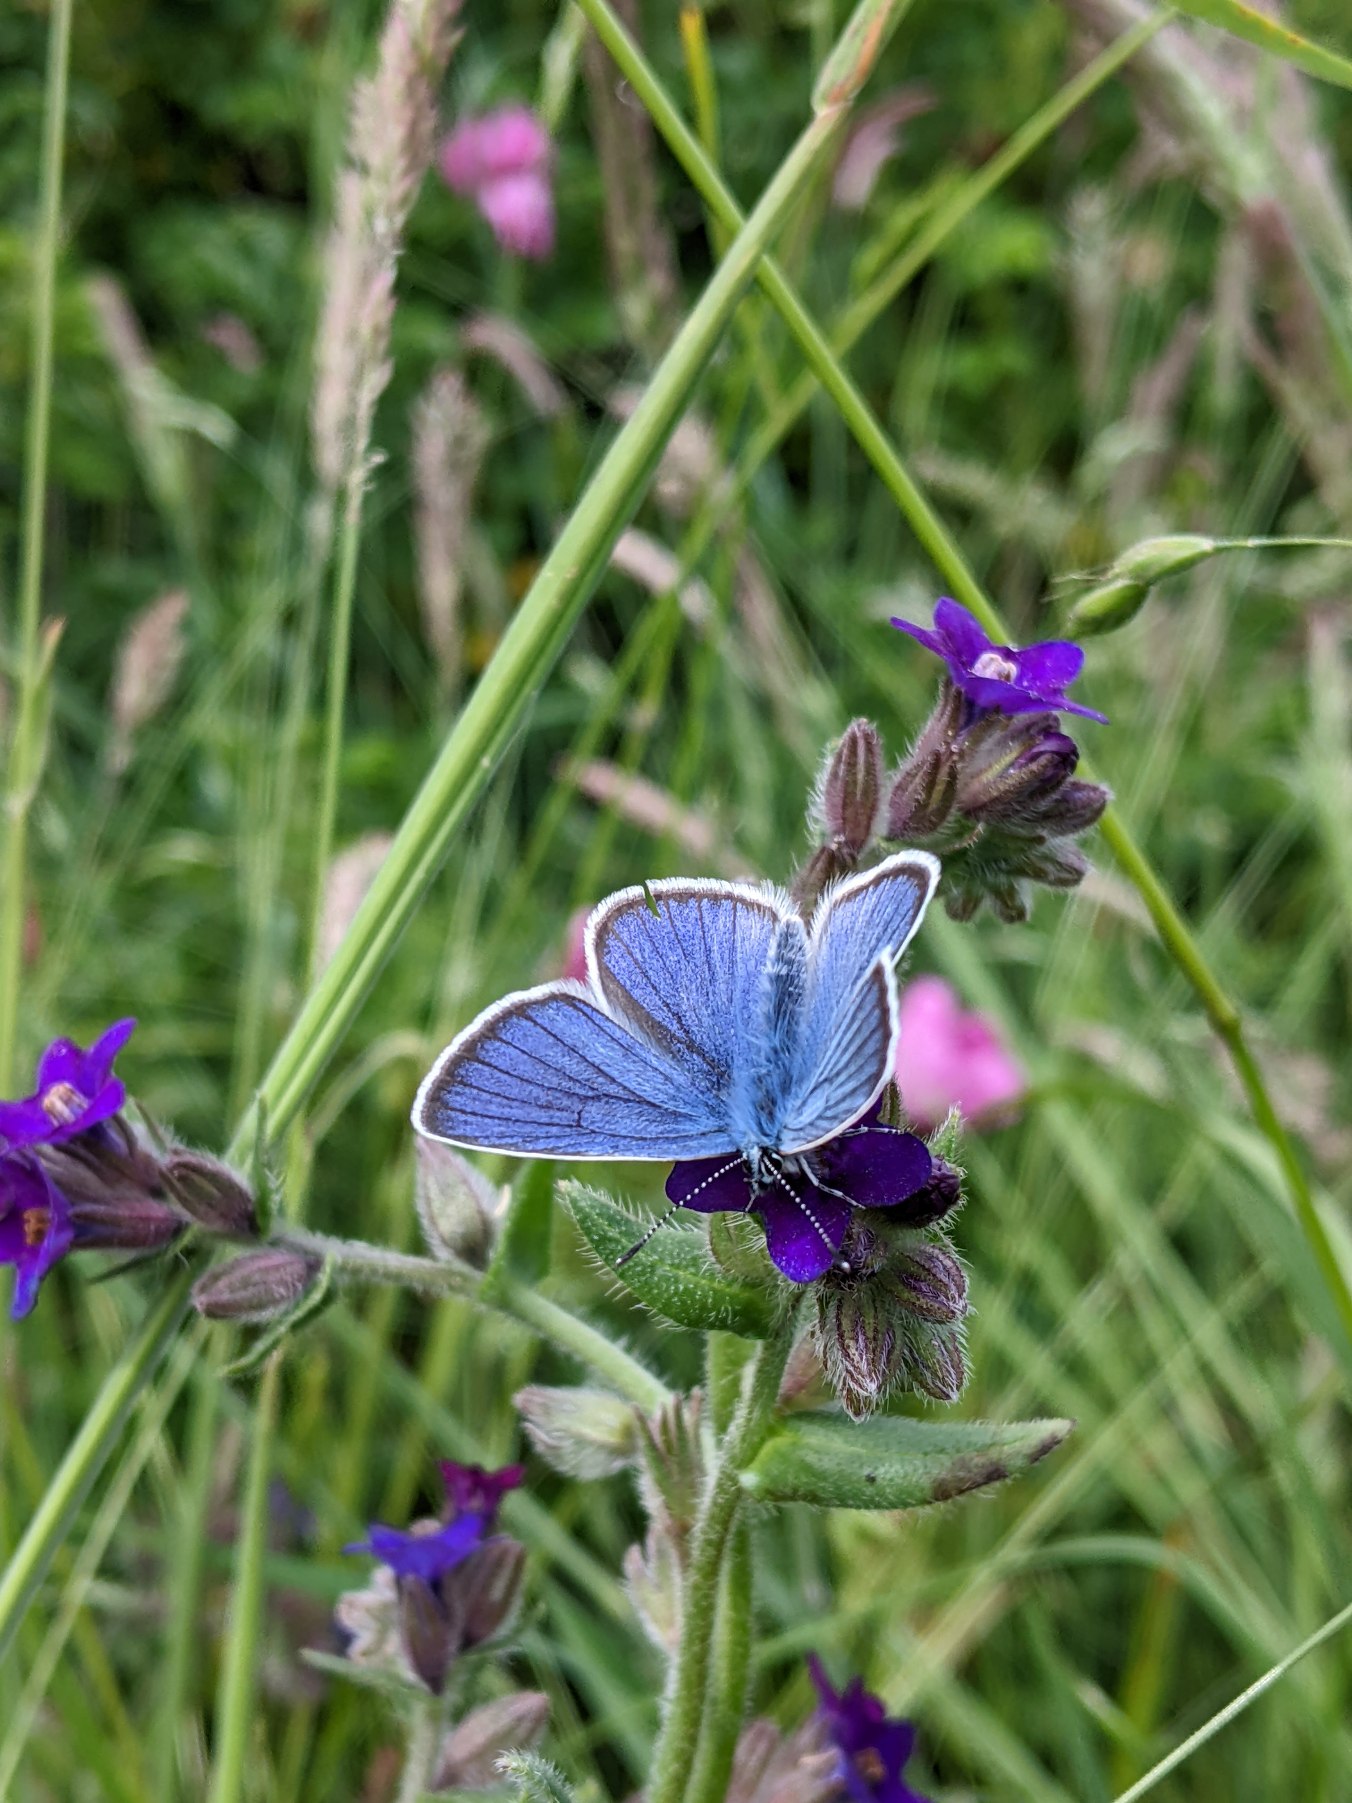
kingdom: Animalia
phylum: Arthropoda
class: Insecta
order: Lepidoptera
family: Lycaenidae
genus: Cyaniris
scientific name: Cyaniris semiargus
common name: Engblåfugl
